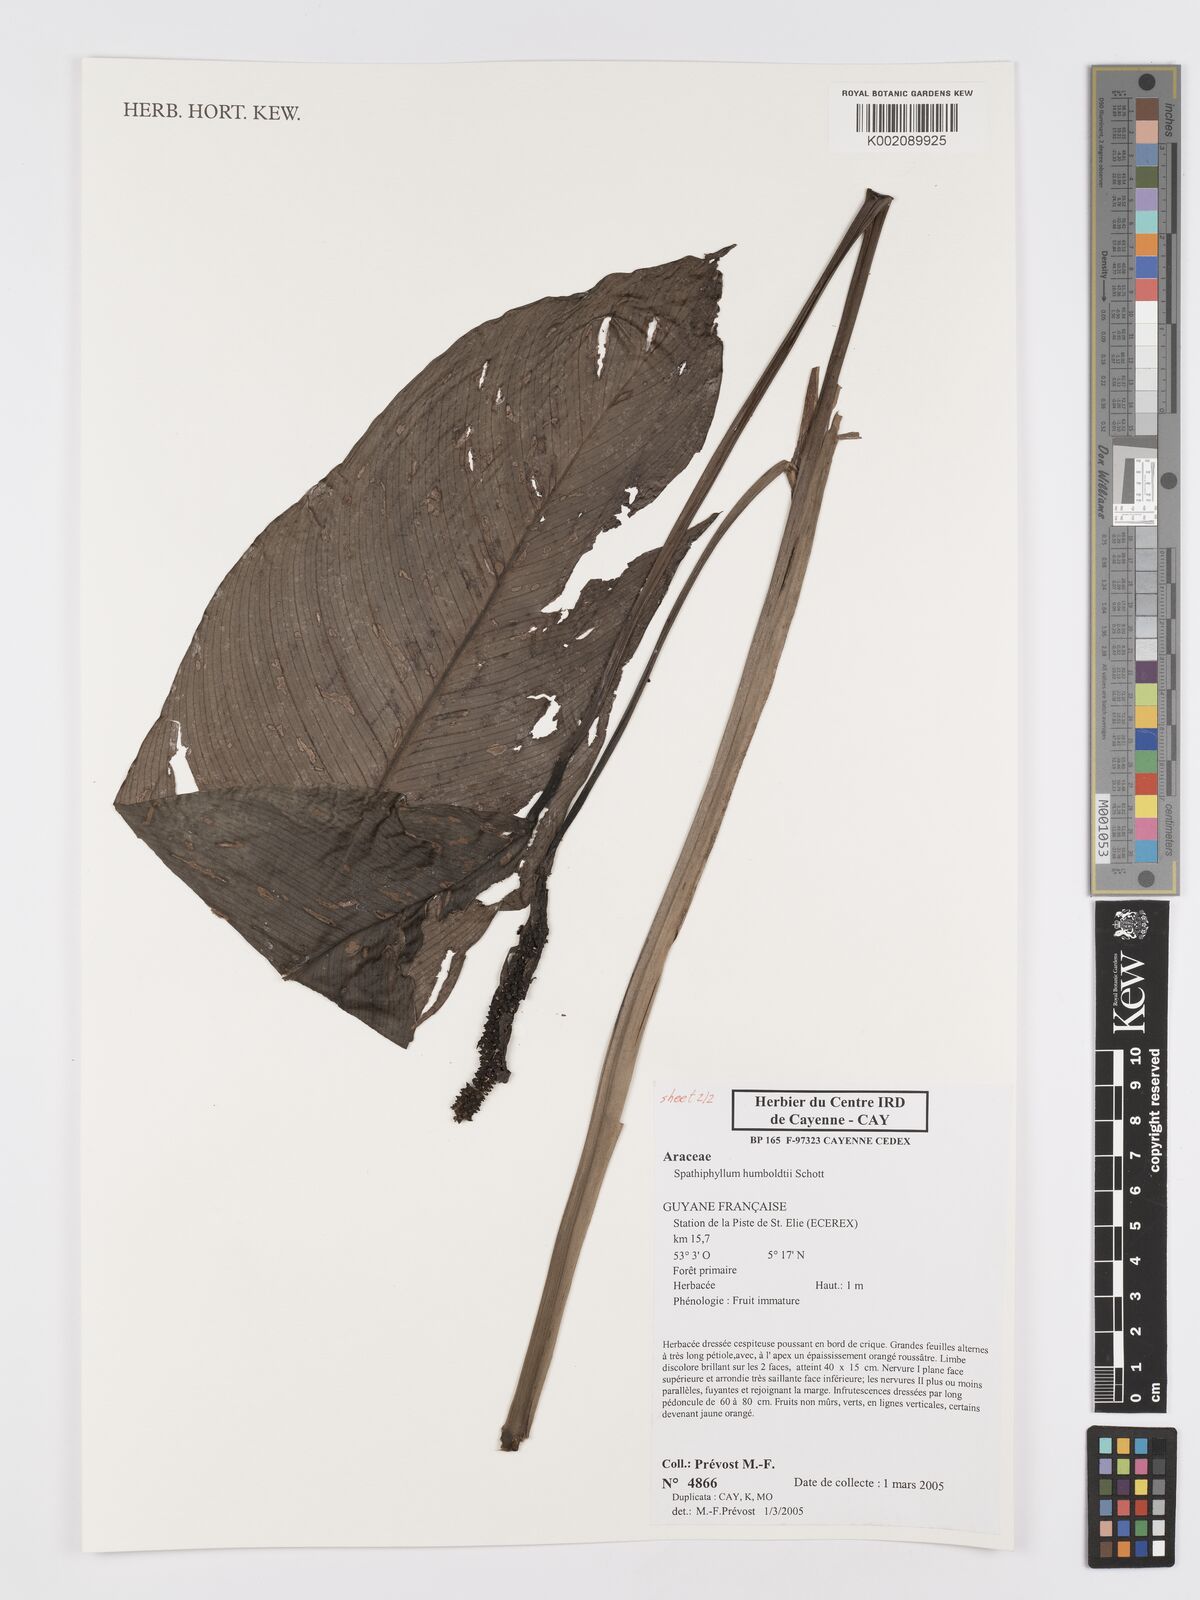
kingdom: Plantae
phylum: Tracheophyta
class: Liliopsida
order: Alismatales
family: Araceae
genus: Spathiphyllum
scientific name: Spathiphyllum humboldtii
